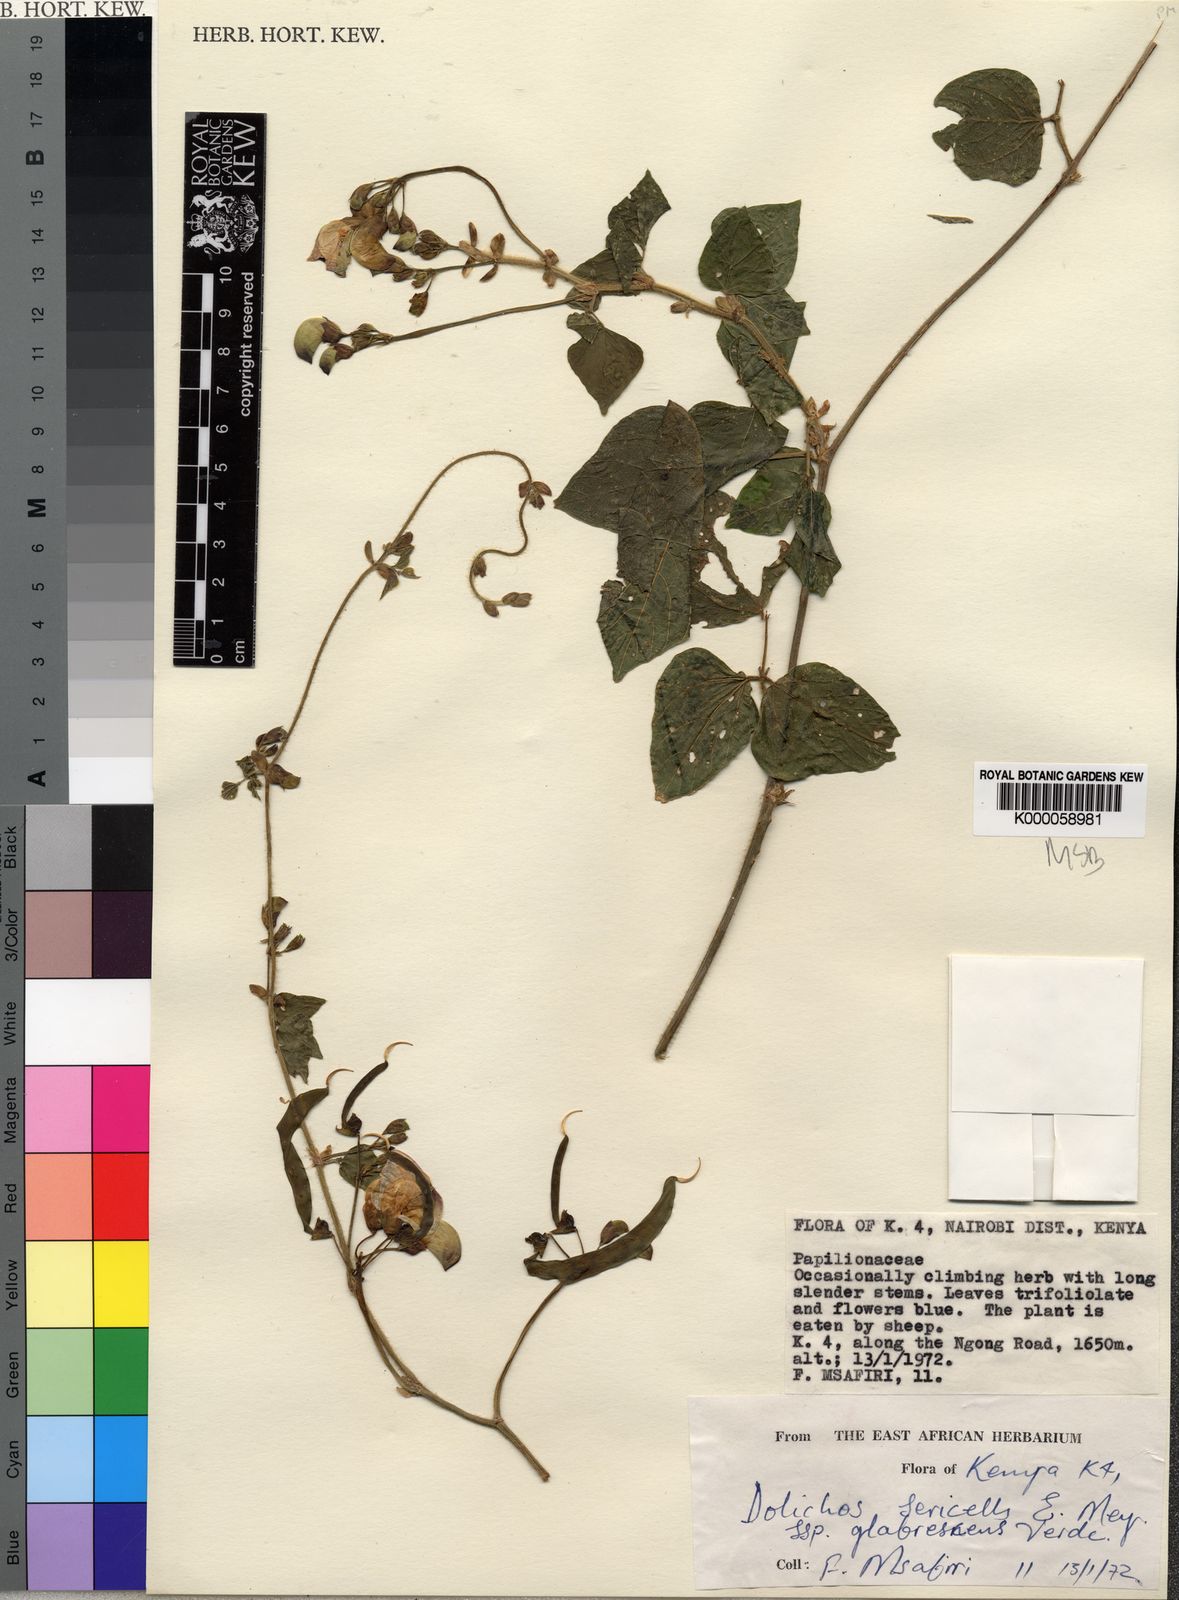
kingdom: Plantae
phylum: Tracheophyta
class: Magnoliopsida
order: Fabales
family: Fabaceae
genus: Dolichos
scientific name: Dolichos sericeus
